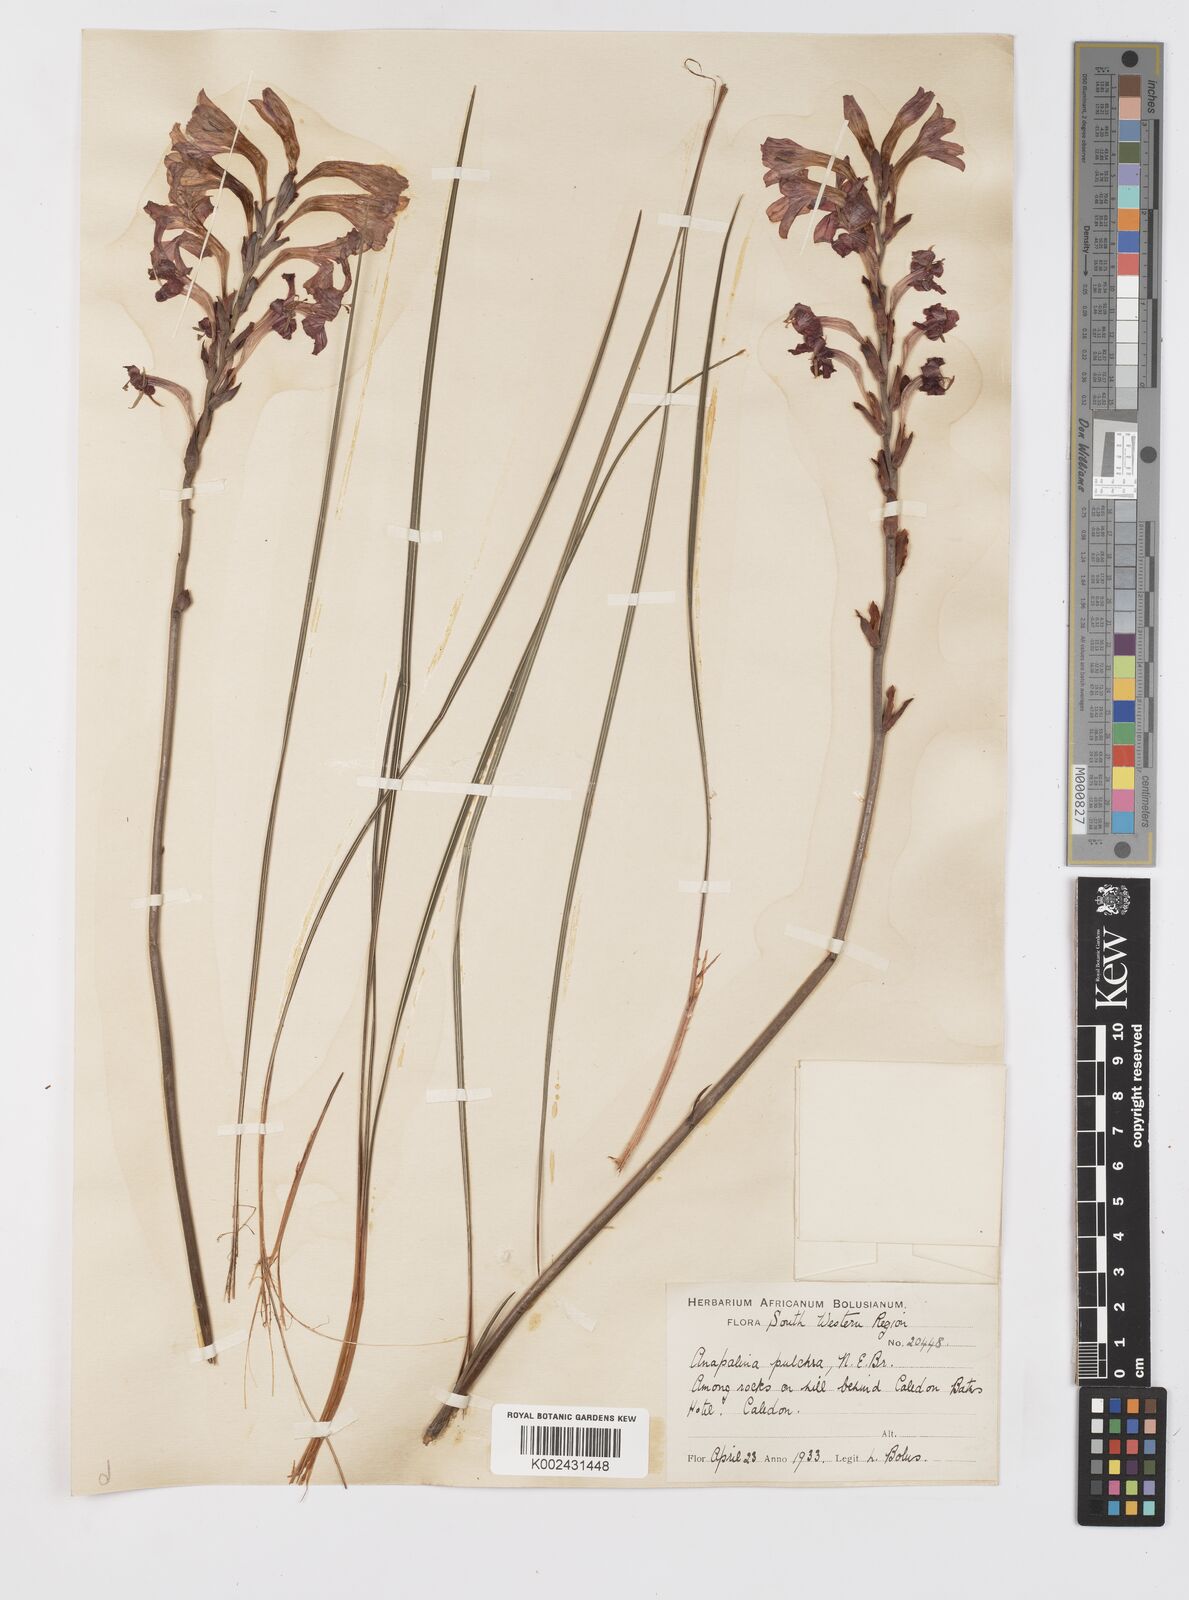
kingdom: Plantae
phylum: Tracheophyta
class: Liliopsida
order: Asparagales
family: Iridaceae
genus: Tritoniopsis
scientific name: Tritoniopsis pulchra
